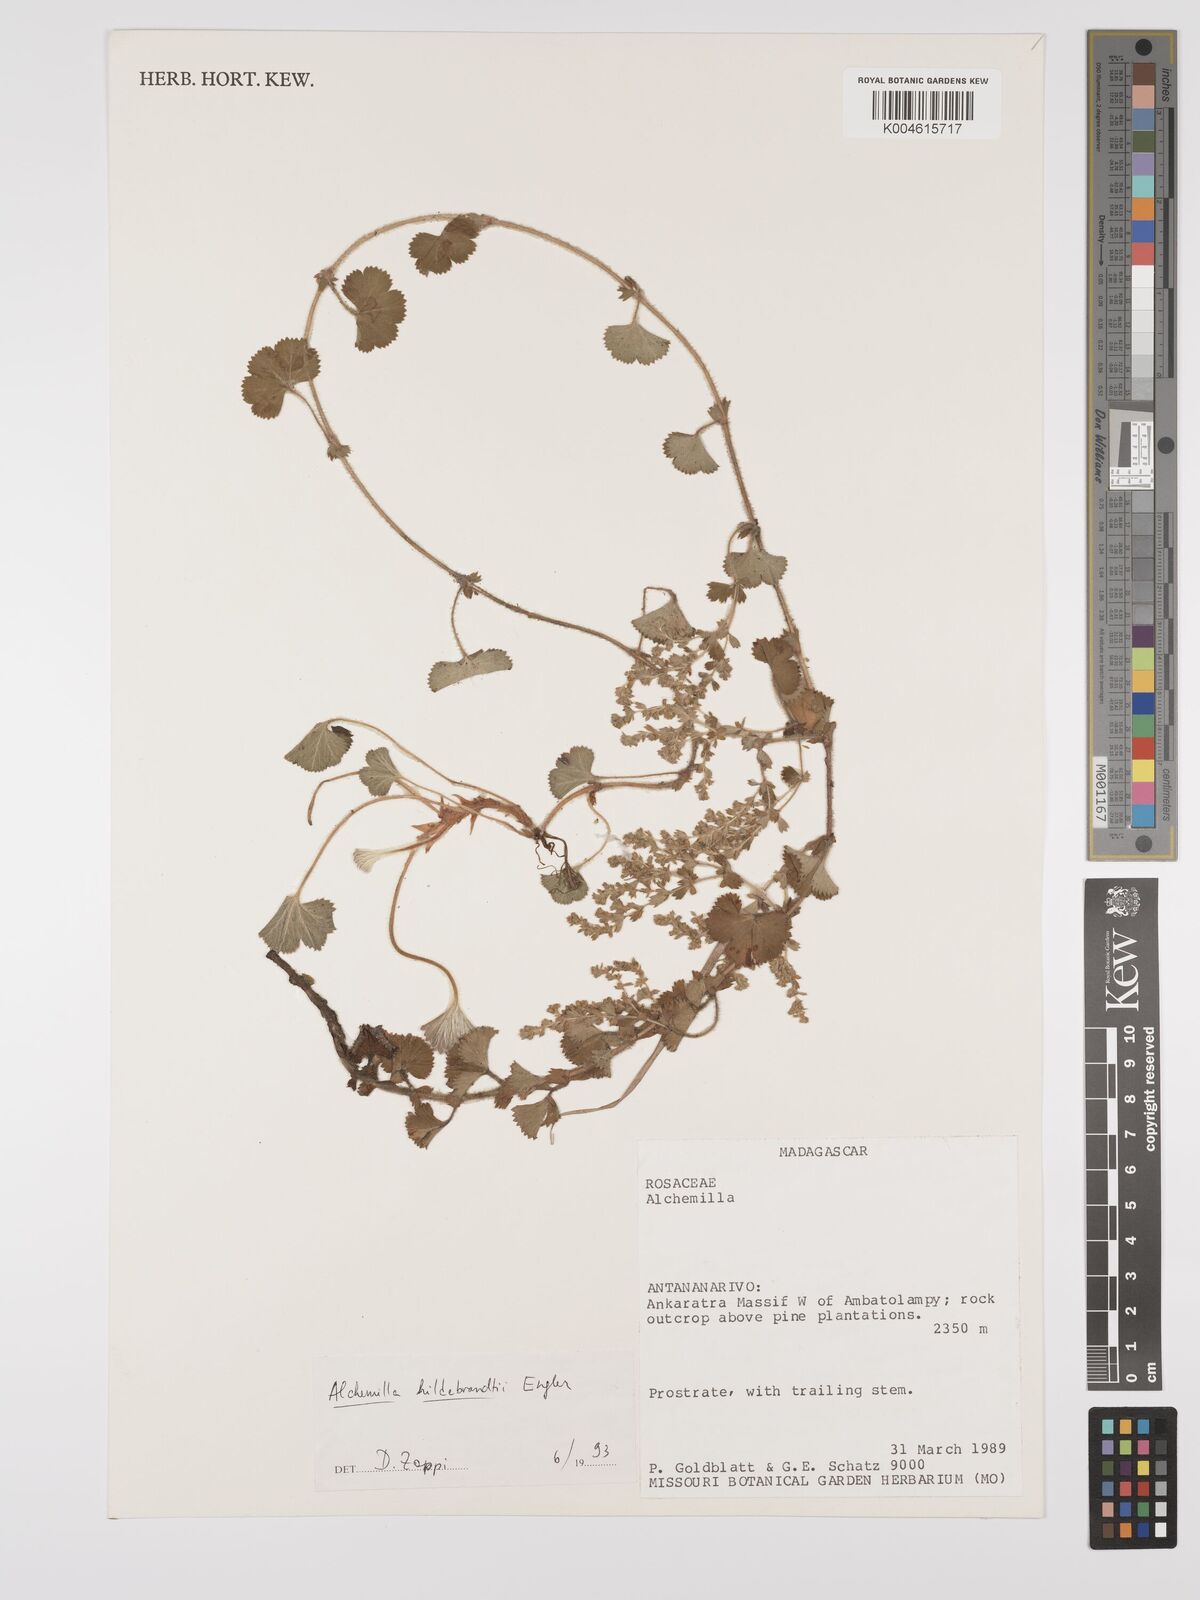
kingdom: Plantae
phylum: Tracheophyta
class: Magnoliopsida
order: Rosales
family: Rosaceae
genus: Alchemilla
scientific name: Alchemilla hildebrandtii
